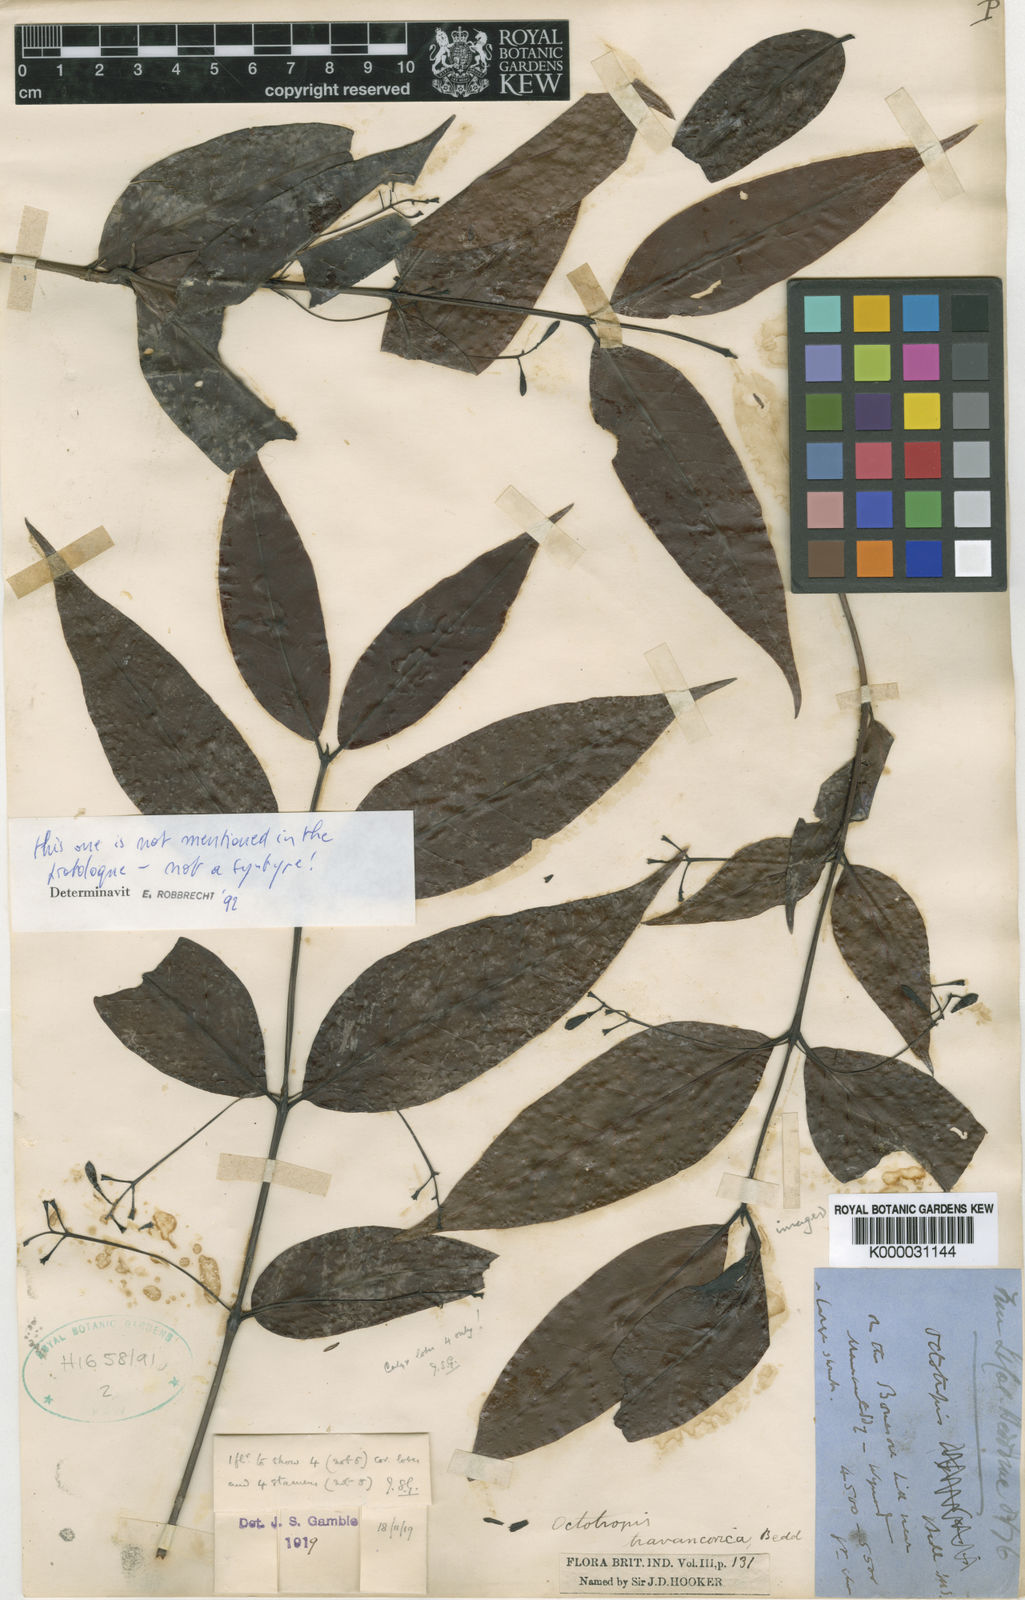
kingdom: Plantae
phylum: Tracheophyta
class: Magnoliopsida
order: Gentianales
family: Rubiaceae
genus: Octotropis
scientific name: Octotropis travancorica
